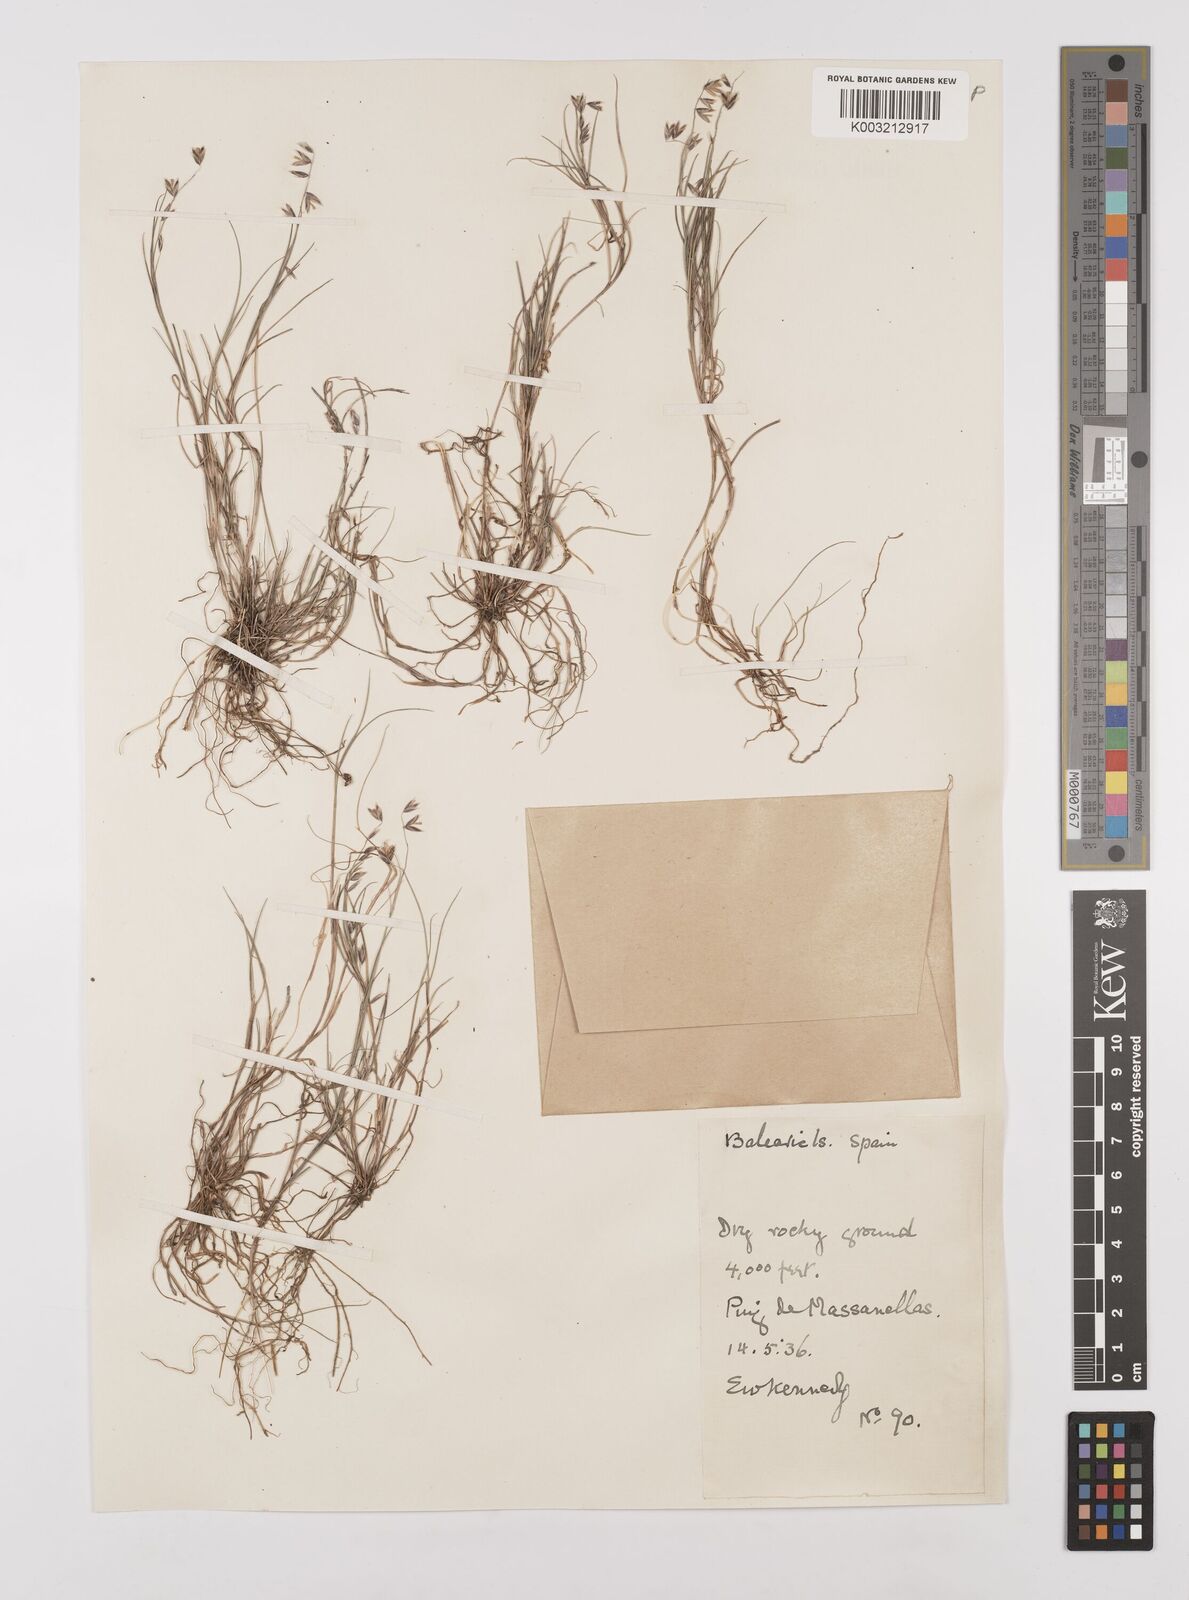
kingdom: Plantae
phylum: Tracheophyta
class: Liliopsida
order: Poales
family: Poaceae
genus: Melica
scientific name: Melica minuta
